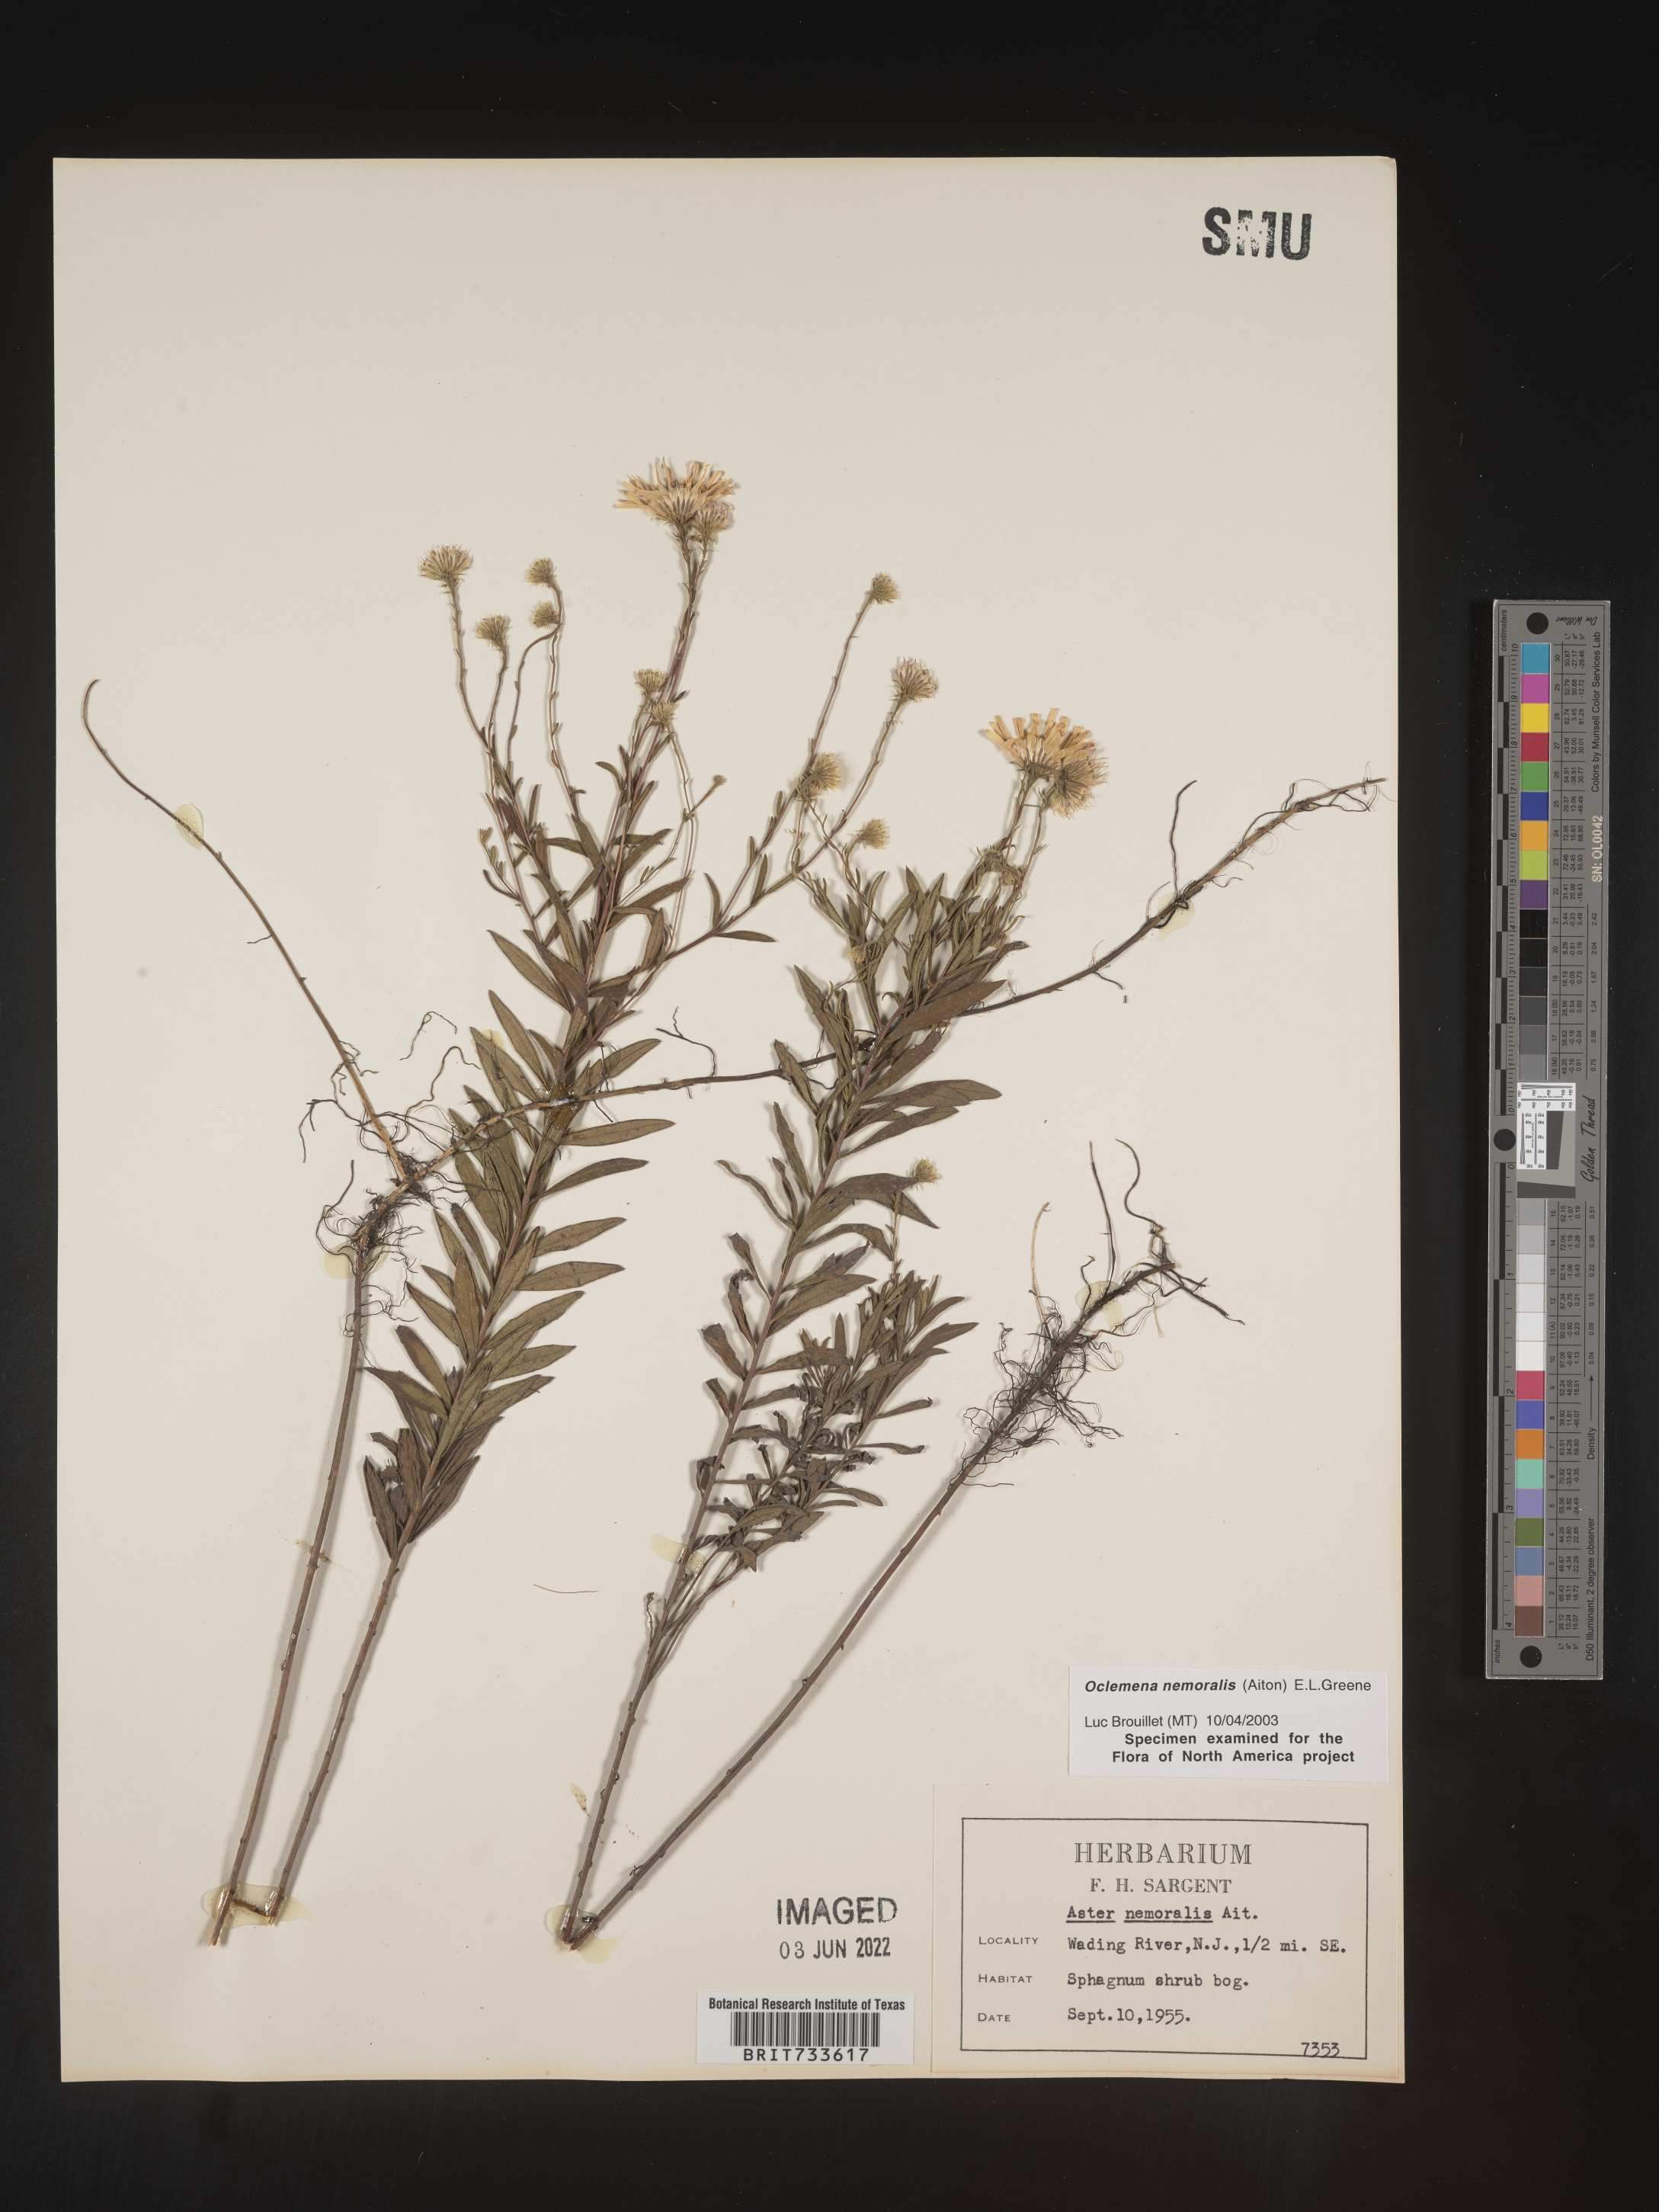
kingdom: Plantae
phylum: Tracheophyta
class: Magnoliopsida
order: Asterales
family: Asteraceae
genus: Oclemena
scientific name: Oclemena nemoralis
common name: Bog aster
